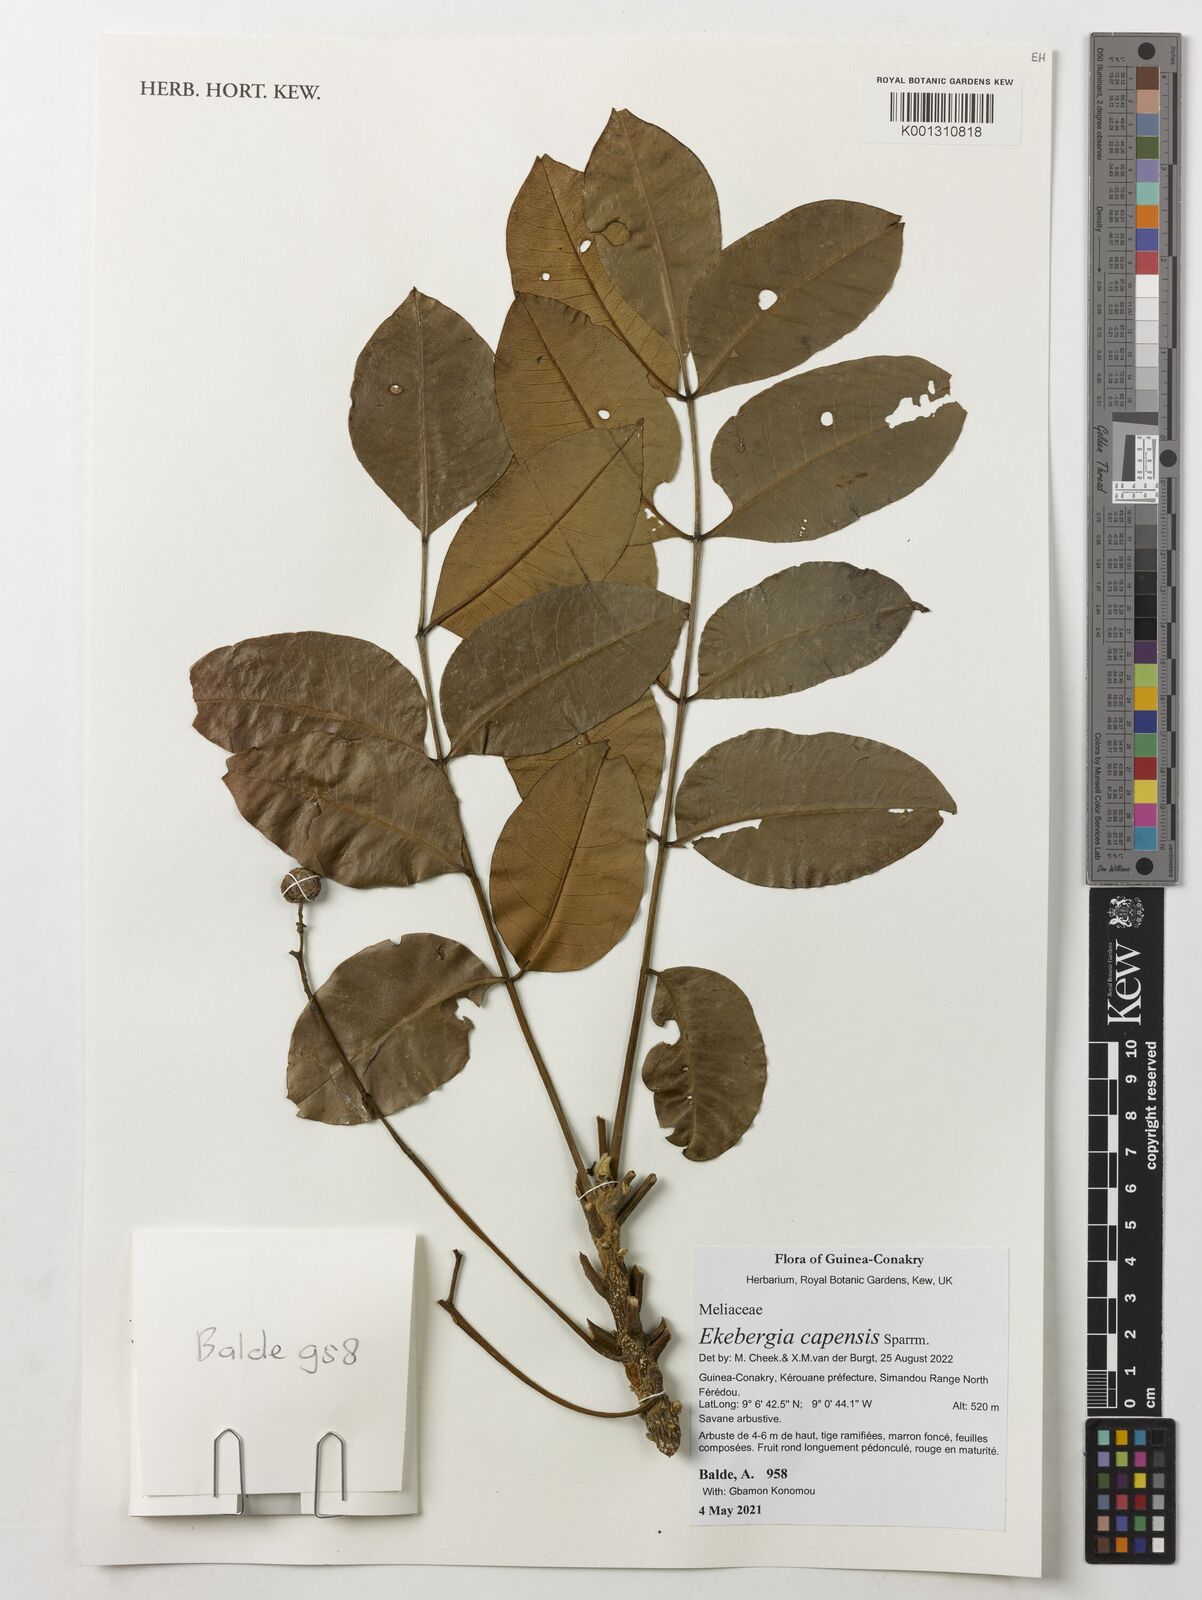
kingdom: Plantae
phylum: Tracheophyta
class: Magnoliopsida
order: Sapindales
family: Meliaceae
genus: Ekebergia
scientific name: Ekebergia capensis
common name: Cape-ash
